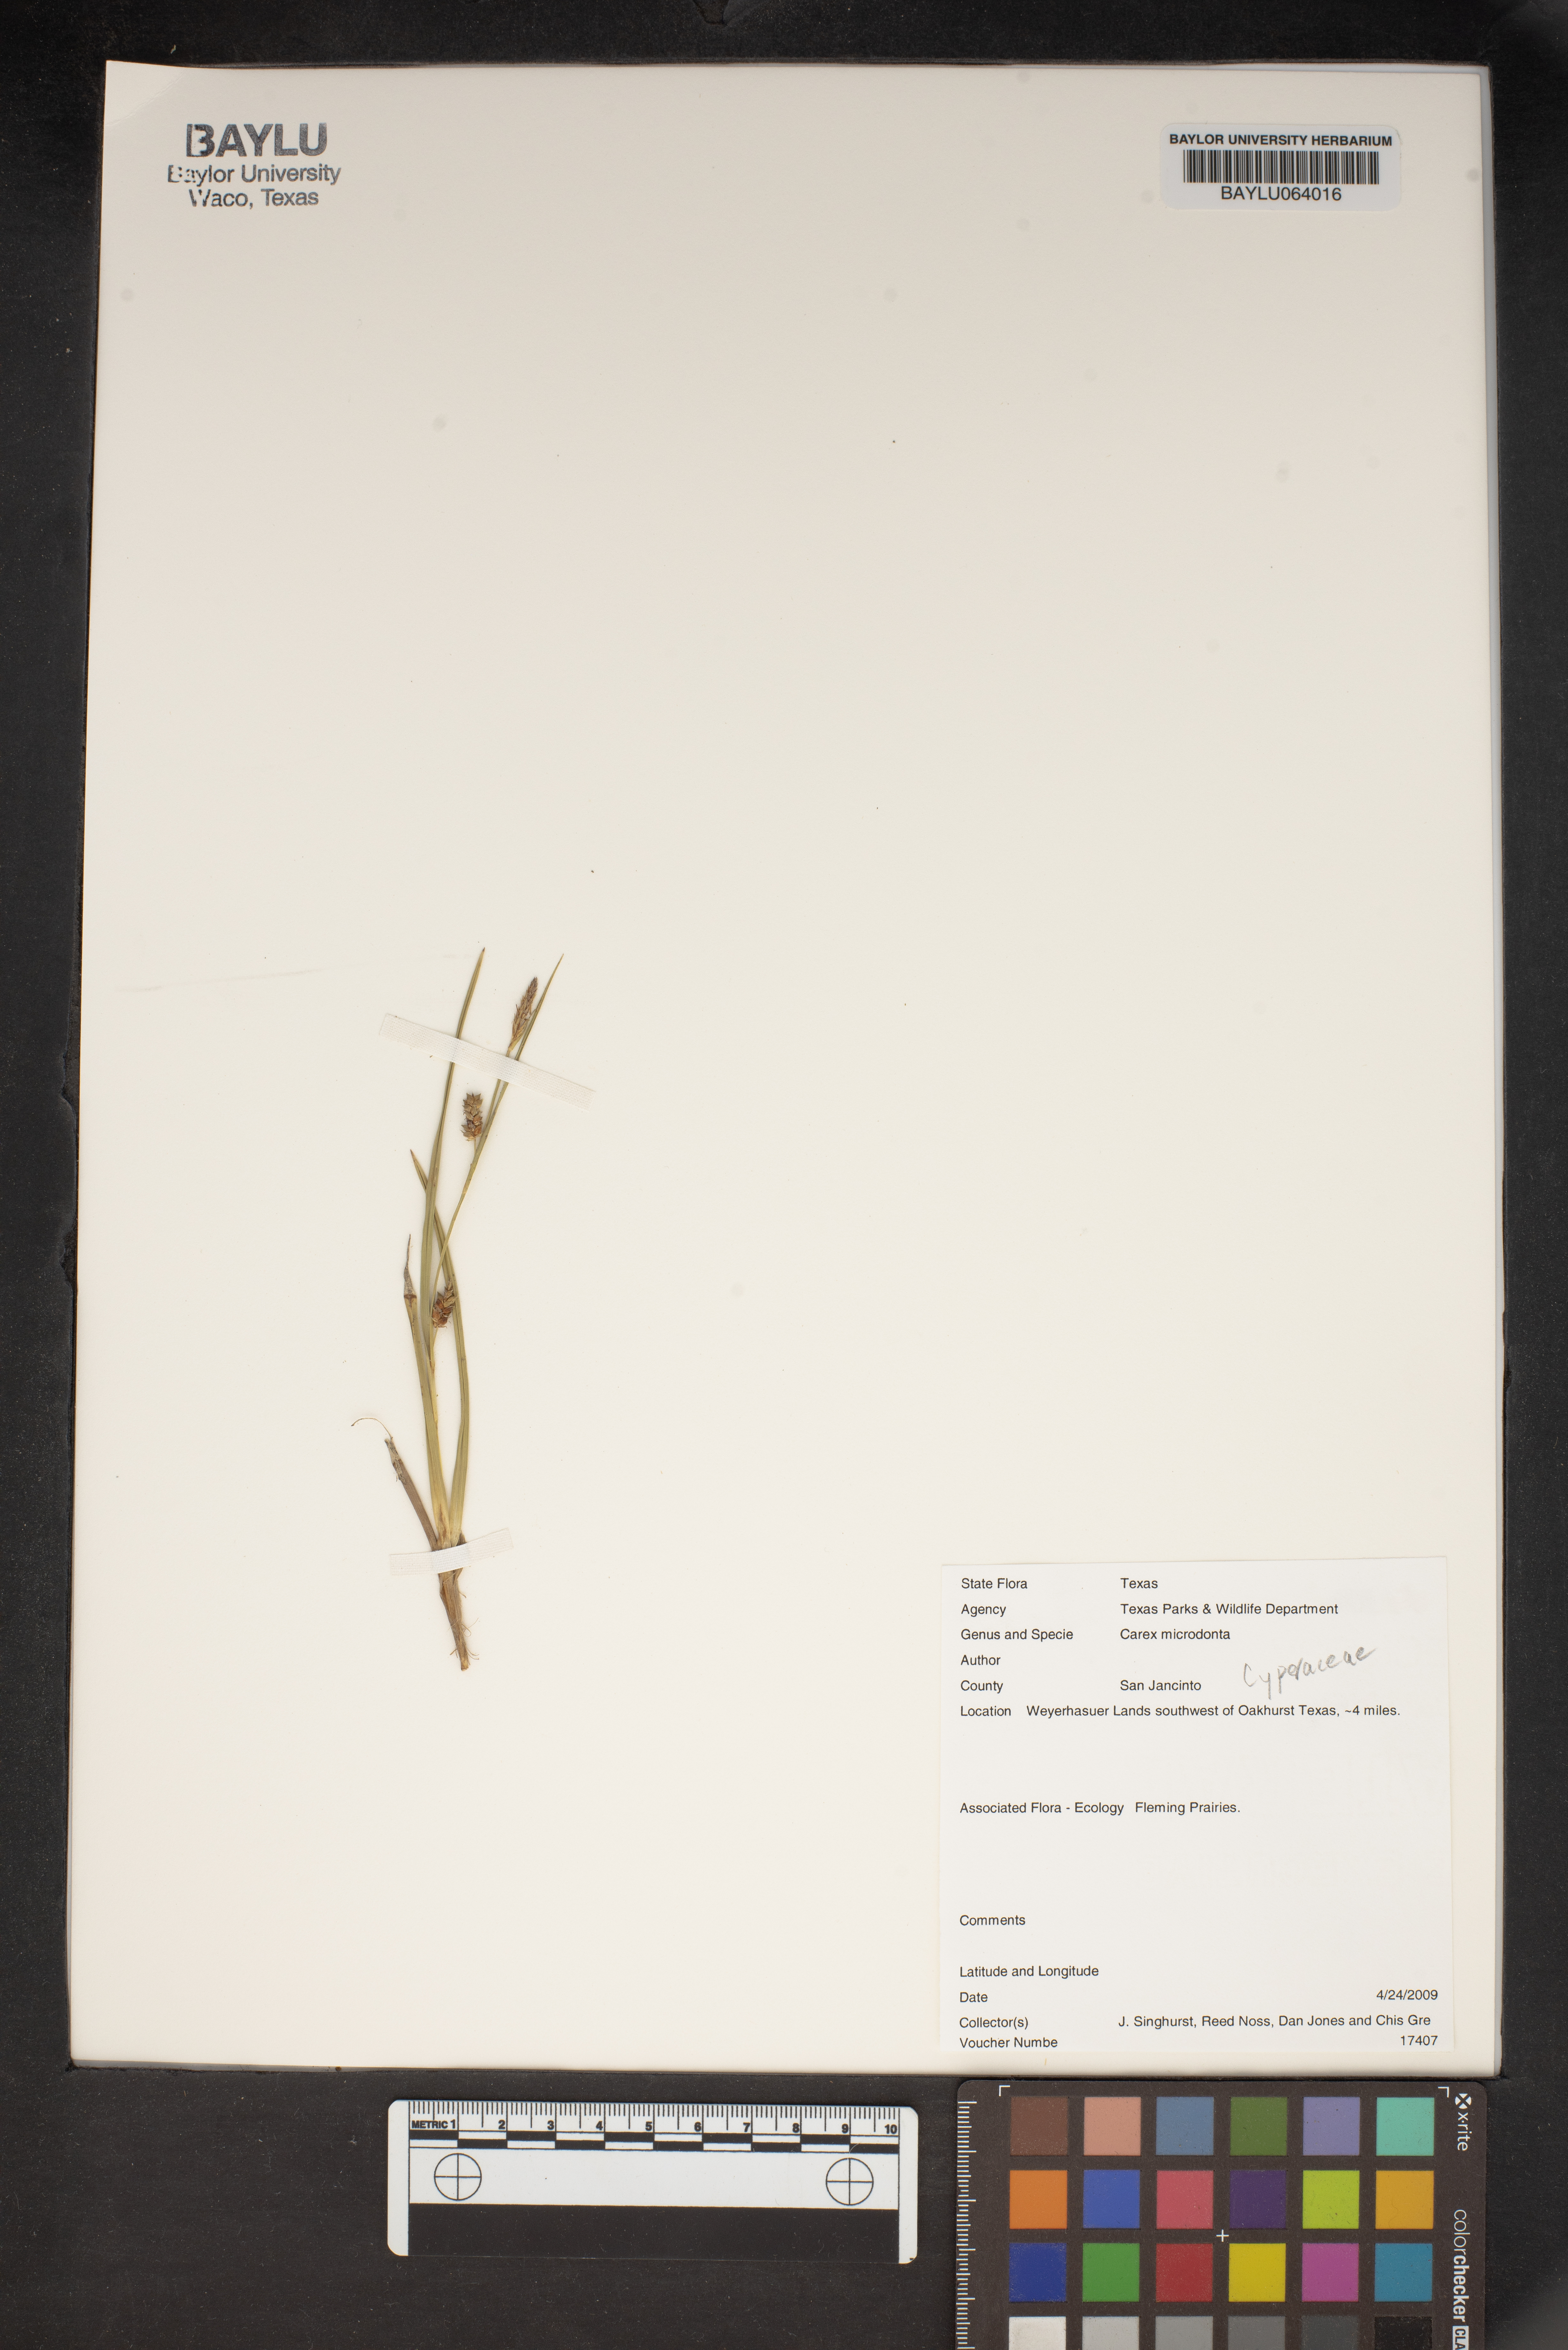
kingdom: Plantae
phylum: Tracheophyta
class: Liliopsida
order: Poales
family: Cyperaceae
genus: Carex
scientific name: Carex microdonta
